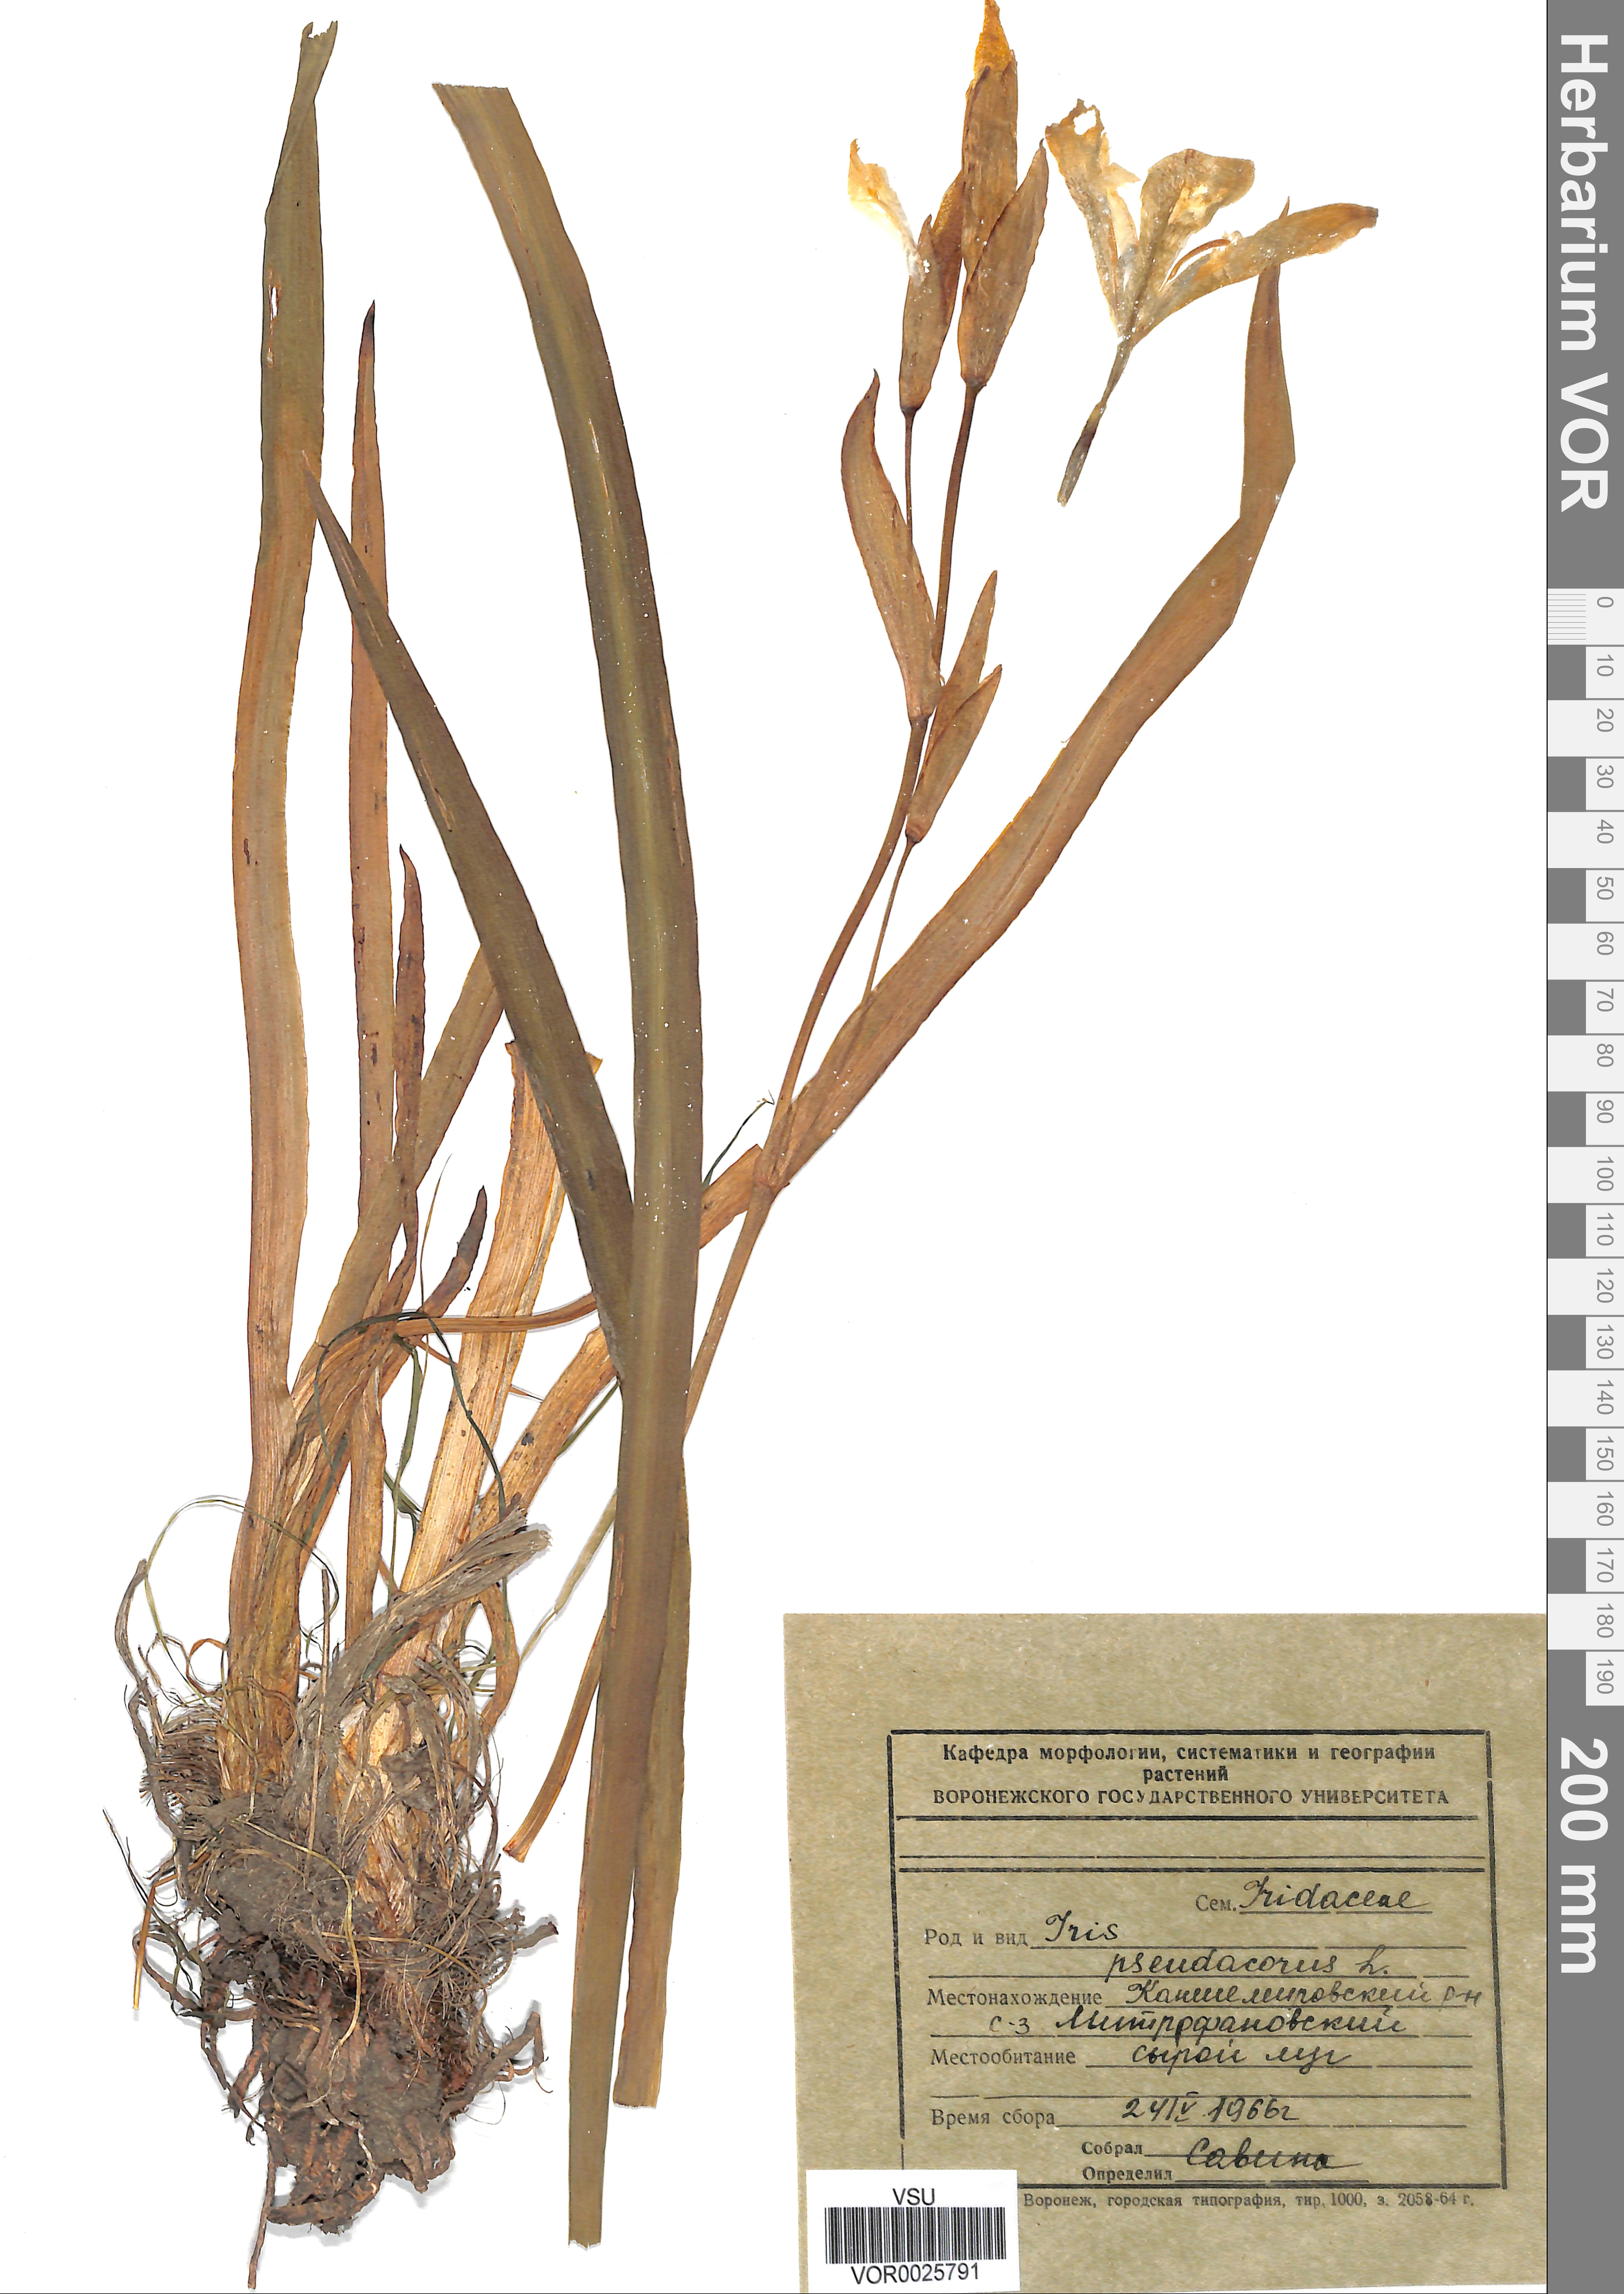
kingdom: Plantae
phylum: Tracheophyta
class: Liliopsida
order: Asparagales
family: Iridaceae
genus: Iris
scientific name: Iris pseudacorus
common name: Yellow flag
